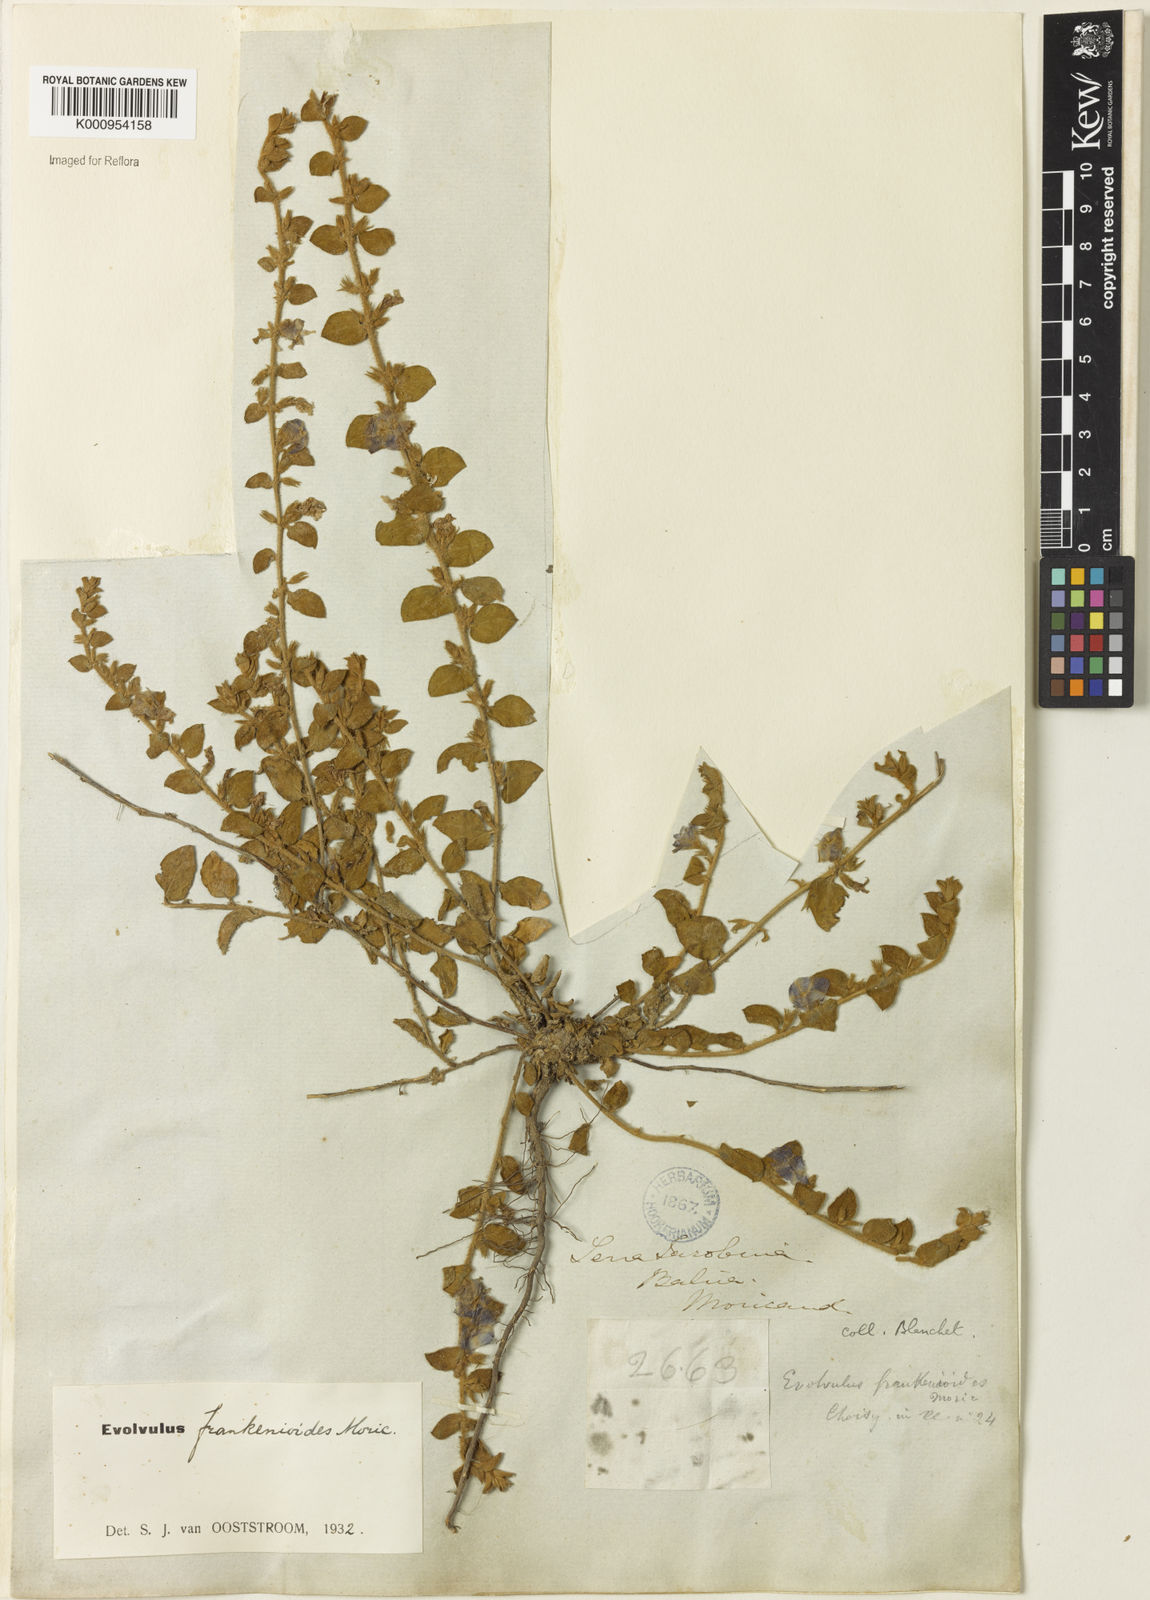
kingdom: Plantae
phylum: Tracheophyta
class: Magnoliopsida
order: Solanales
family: Convolvulaceae
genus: Evolvulus
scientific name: Evolvulus frankenioides
